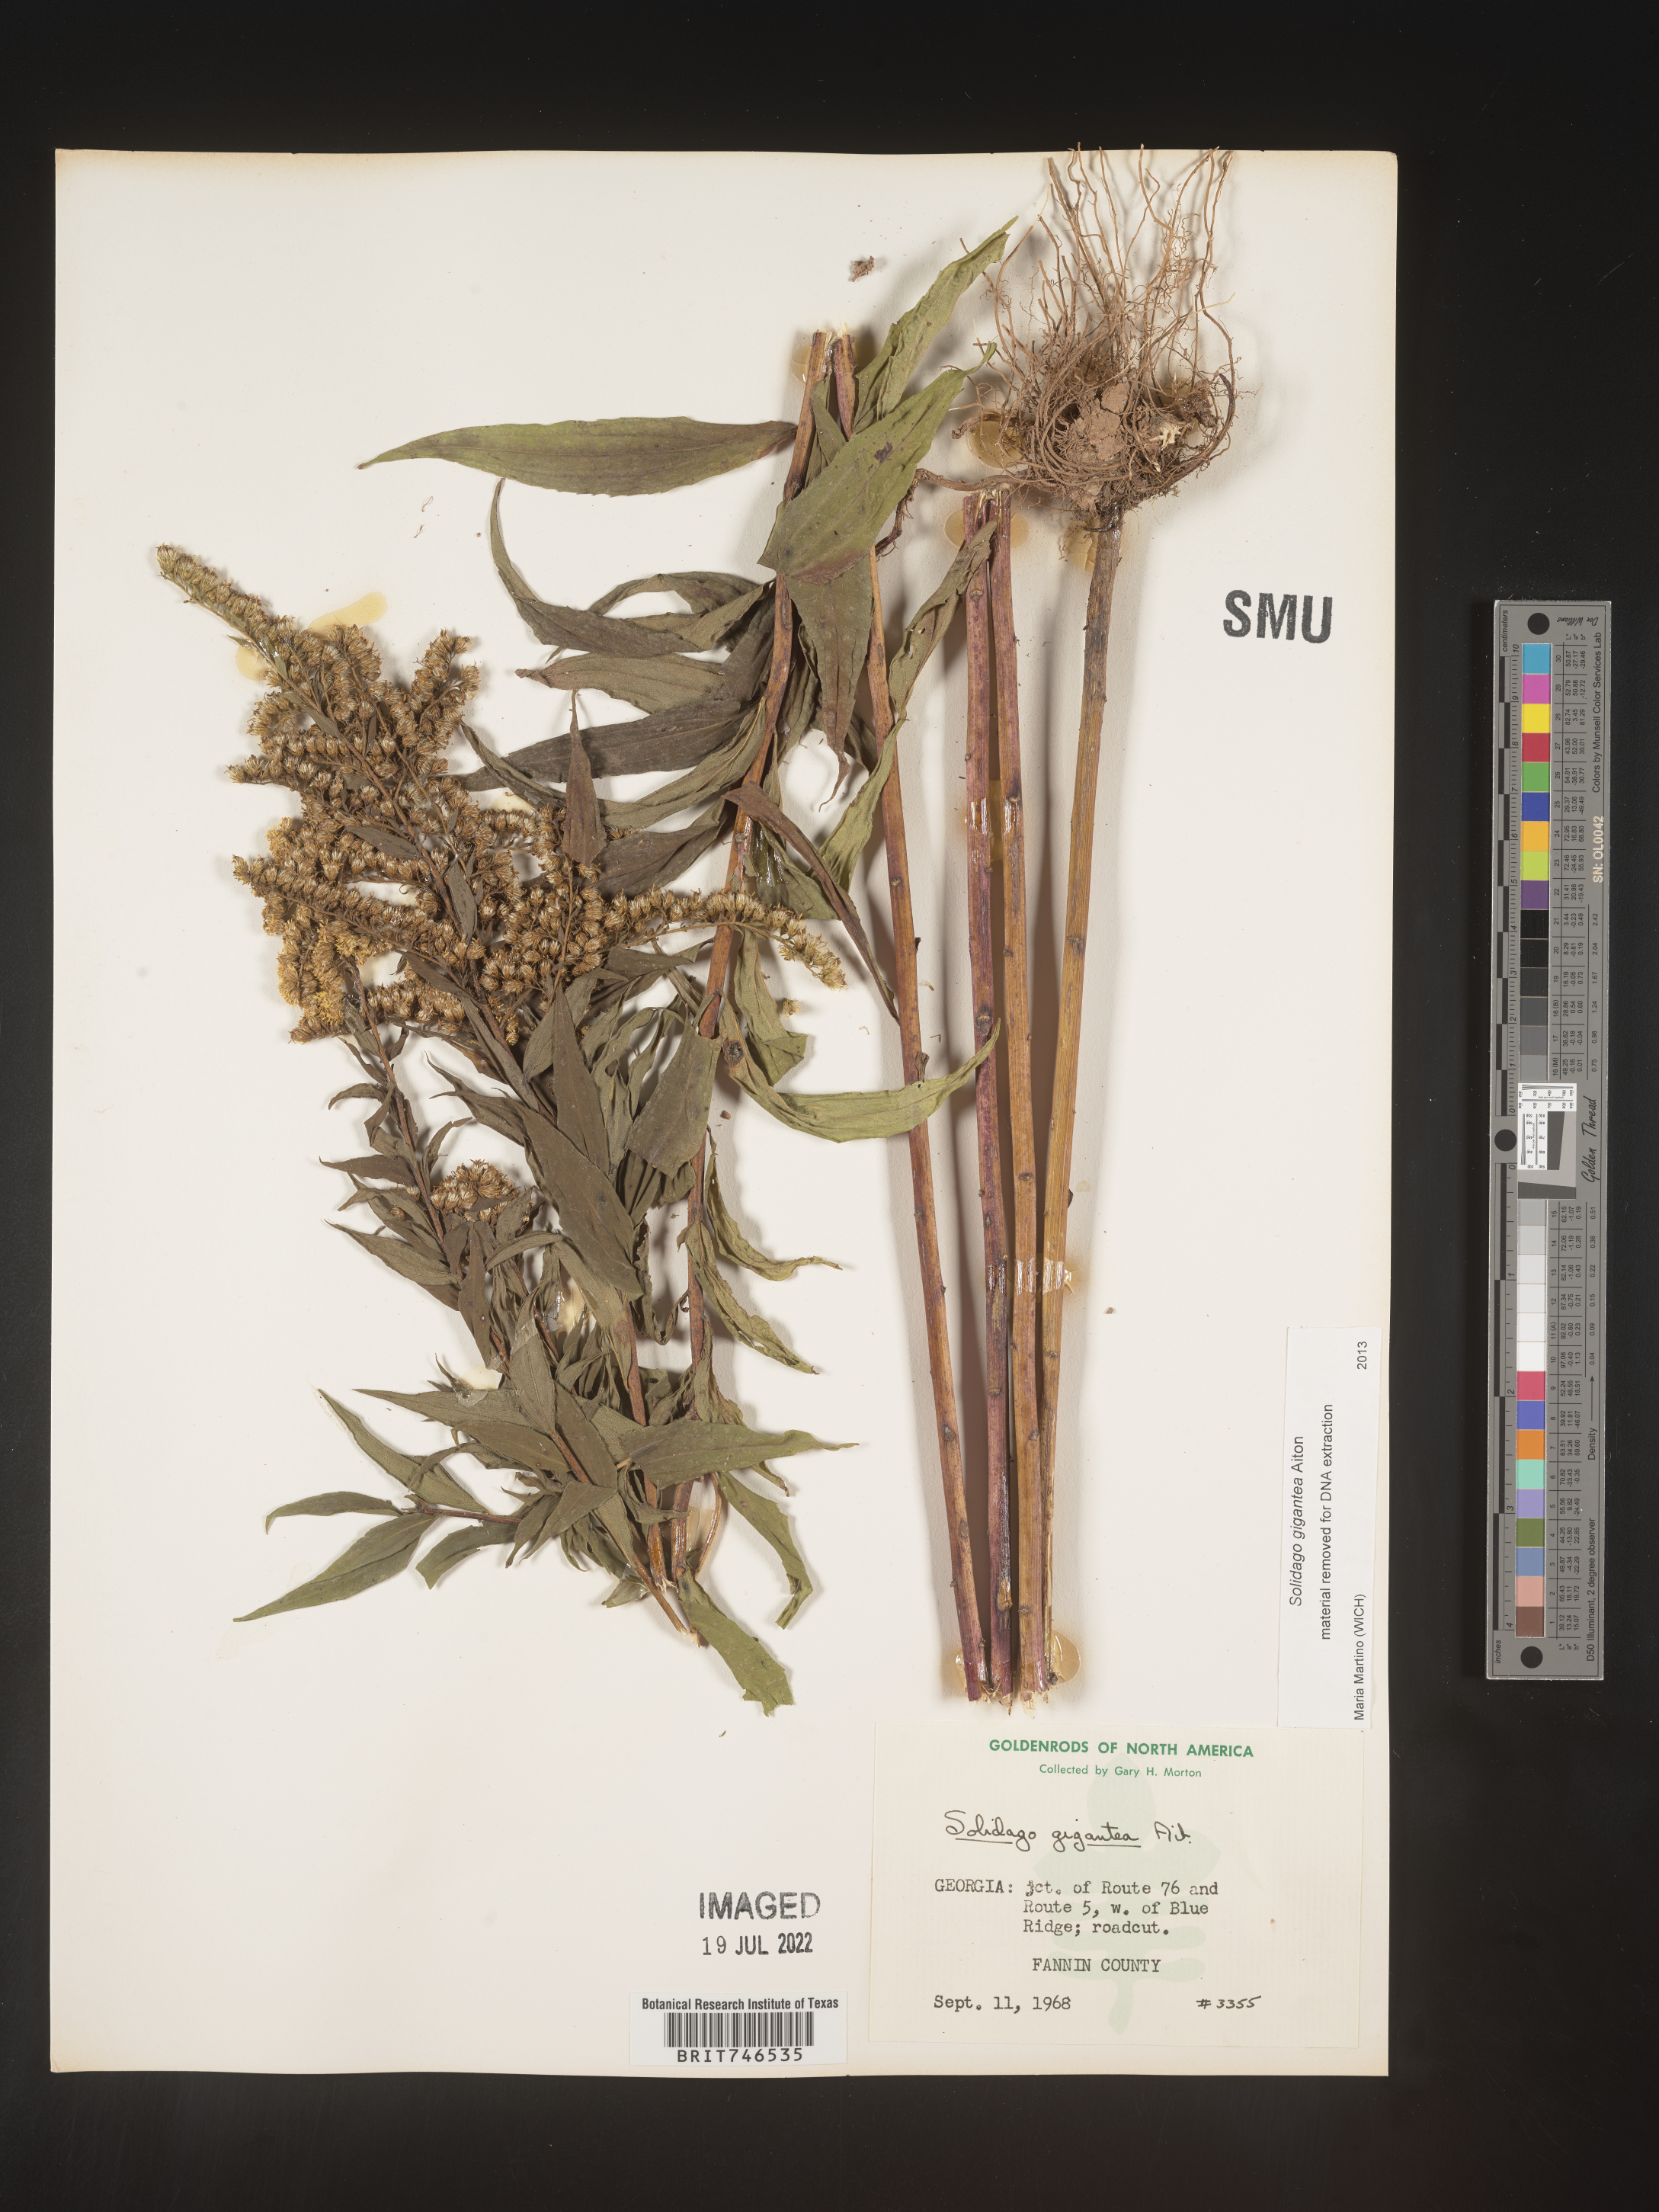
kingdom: Plantae
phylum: Tracheophyta
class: Magnoliopsida
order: Asterales
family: Asteraceae
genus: Solidago
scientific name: Solidago gigantea
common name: Giant goldenrod
